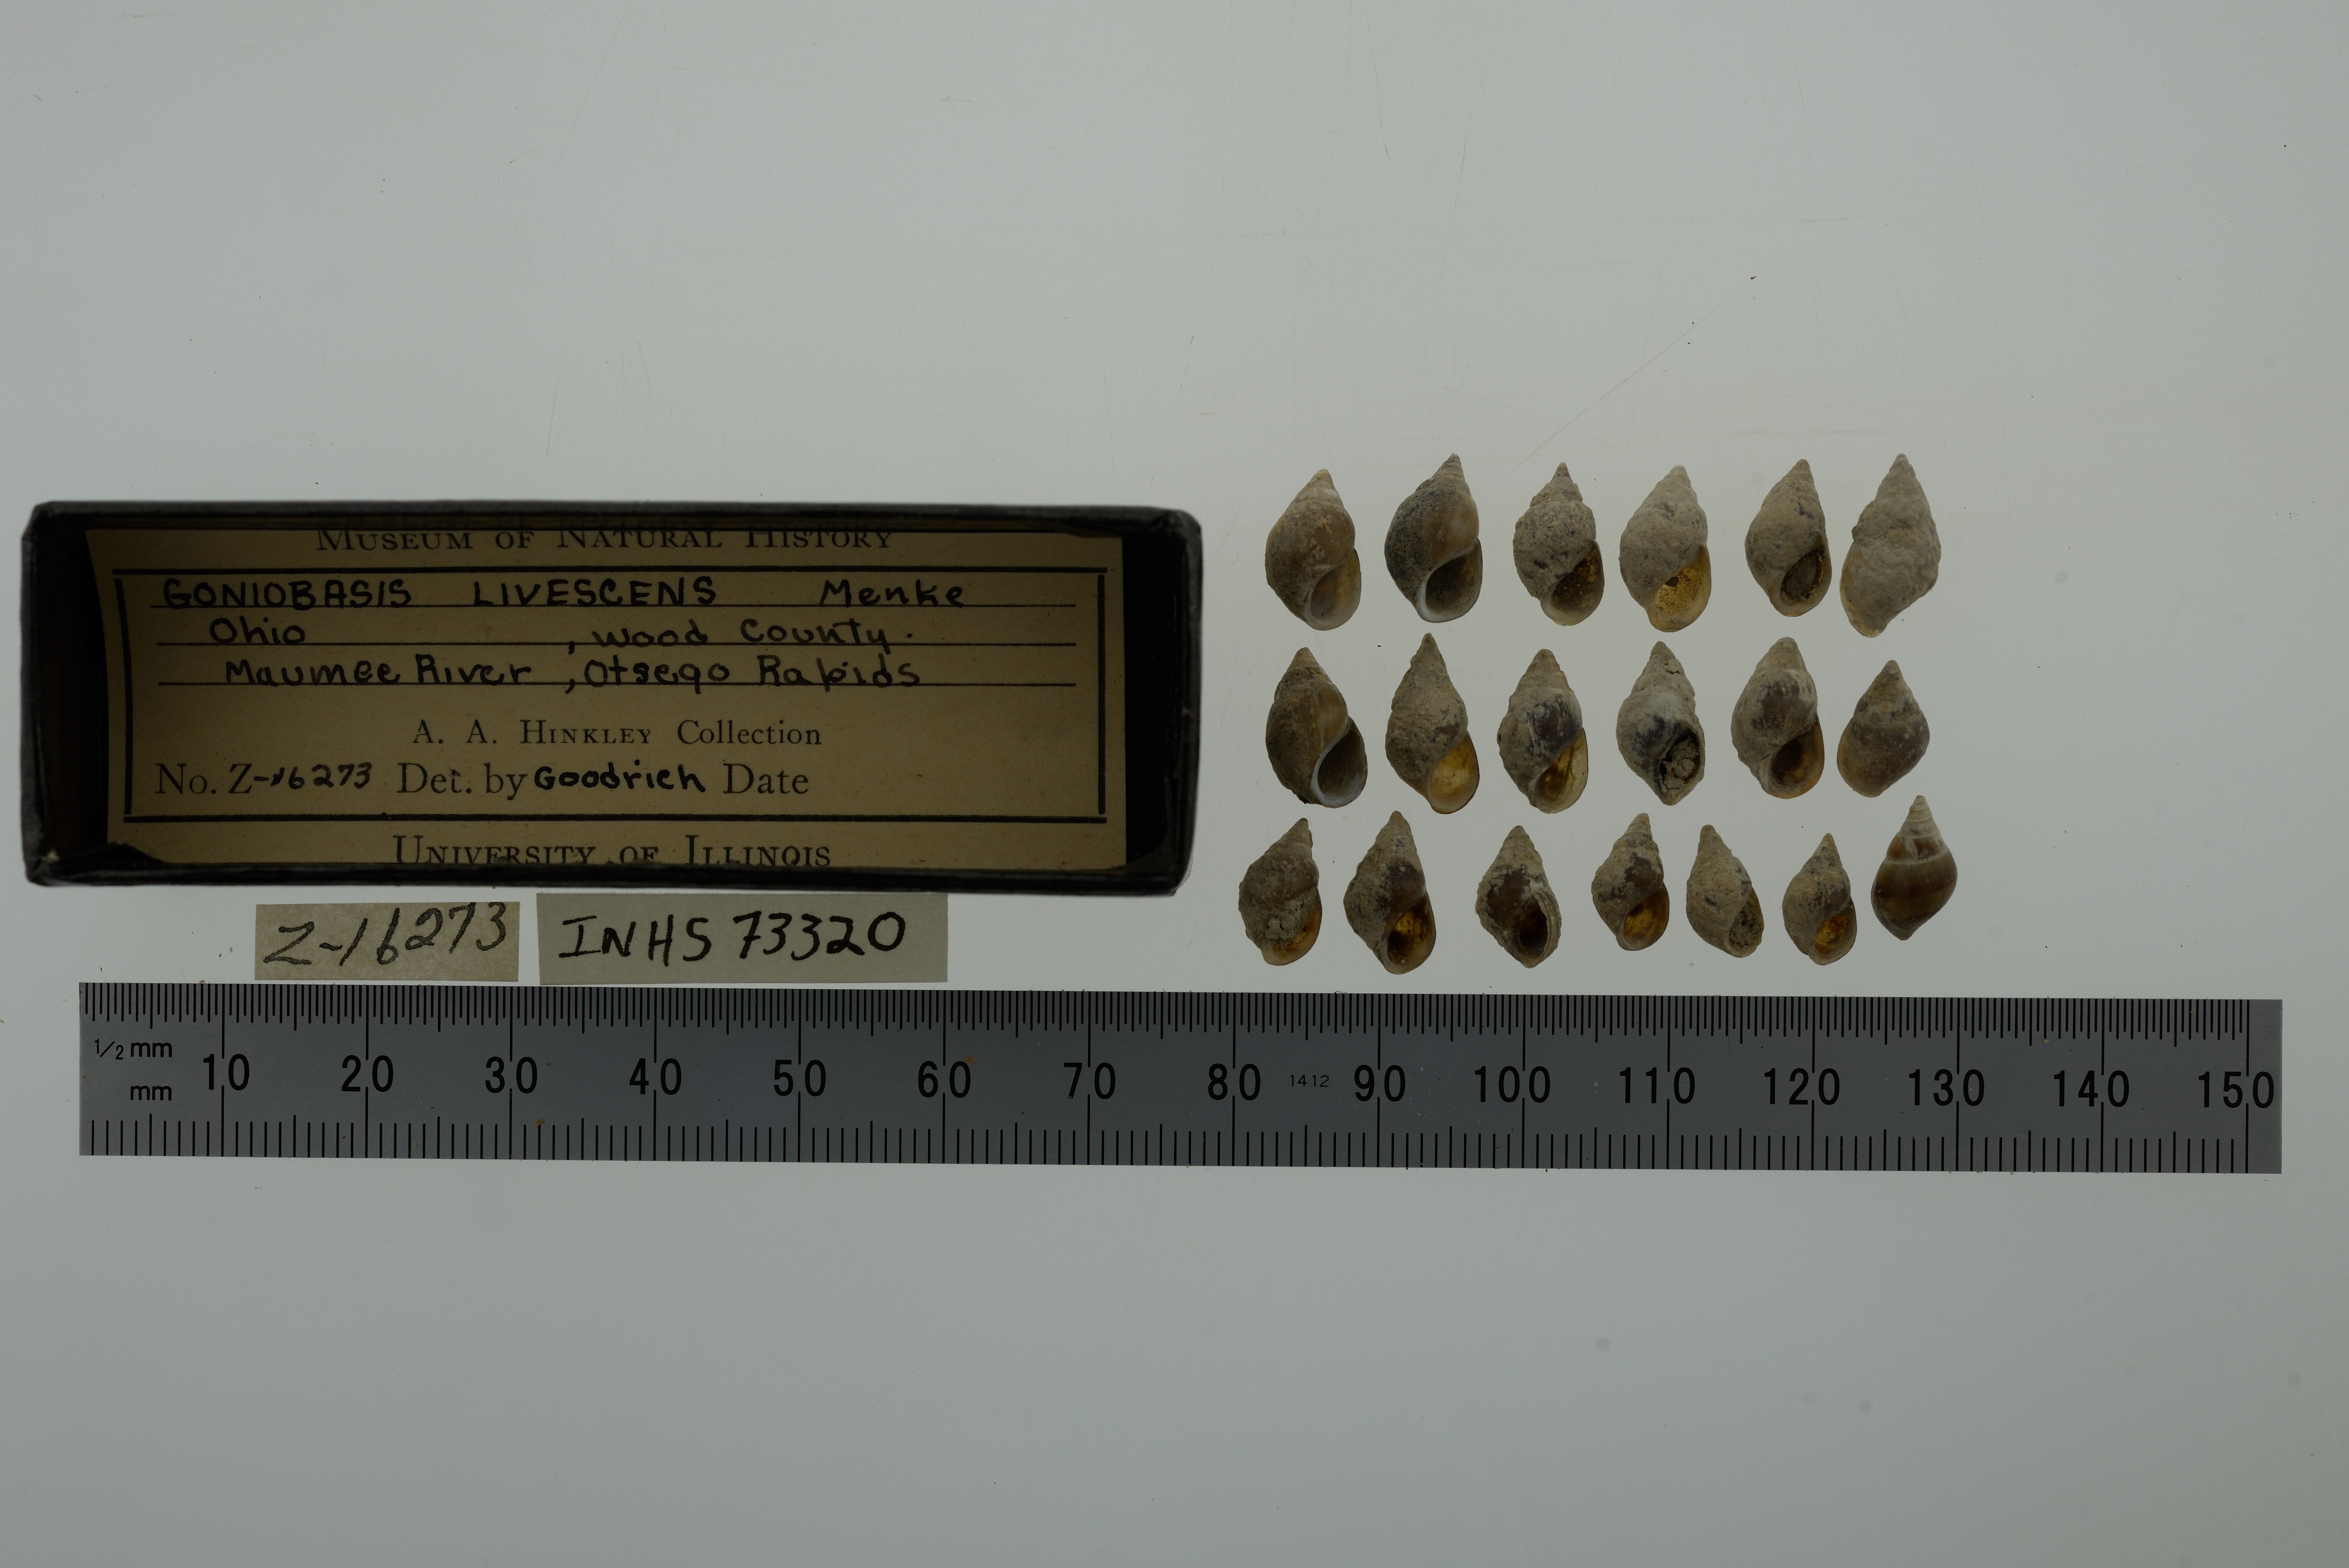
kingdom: Animalia
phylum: Mollusca
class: Gastropoda
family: Pleuroceridae
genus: Elimia
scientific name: Elimia livescens
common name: Liver elimia
